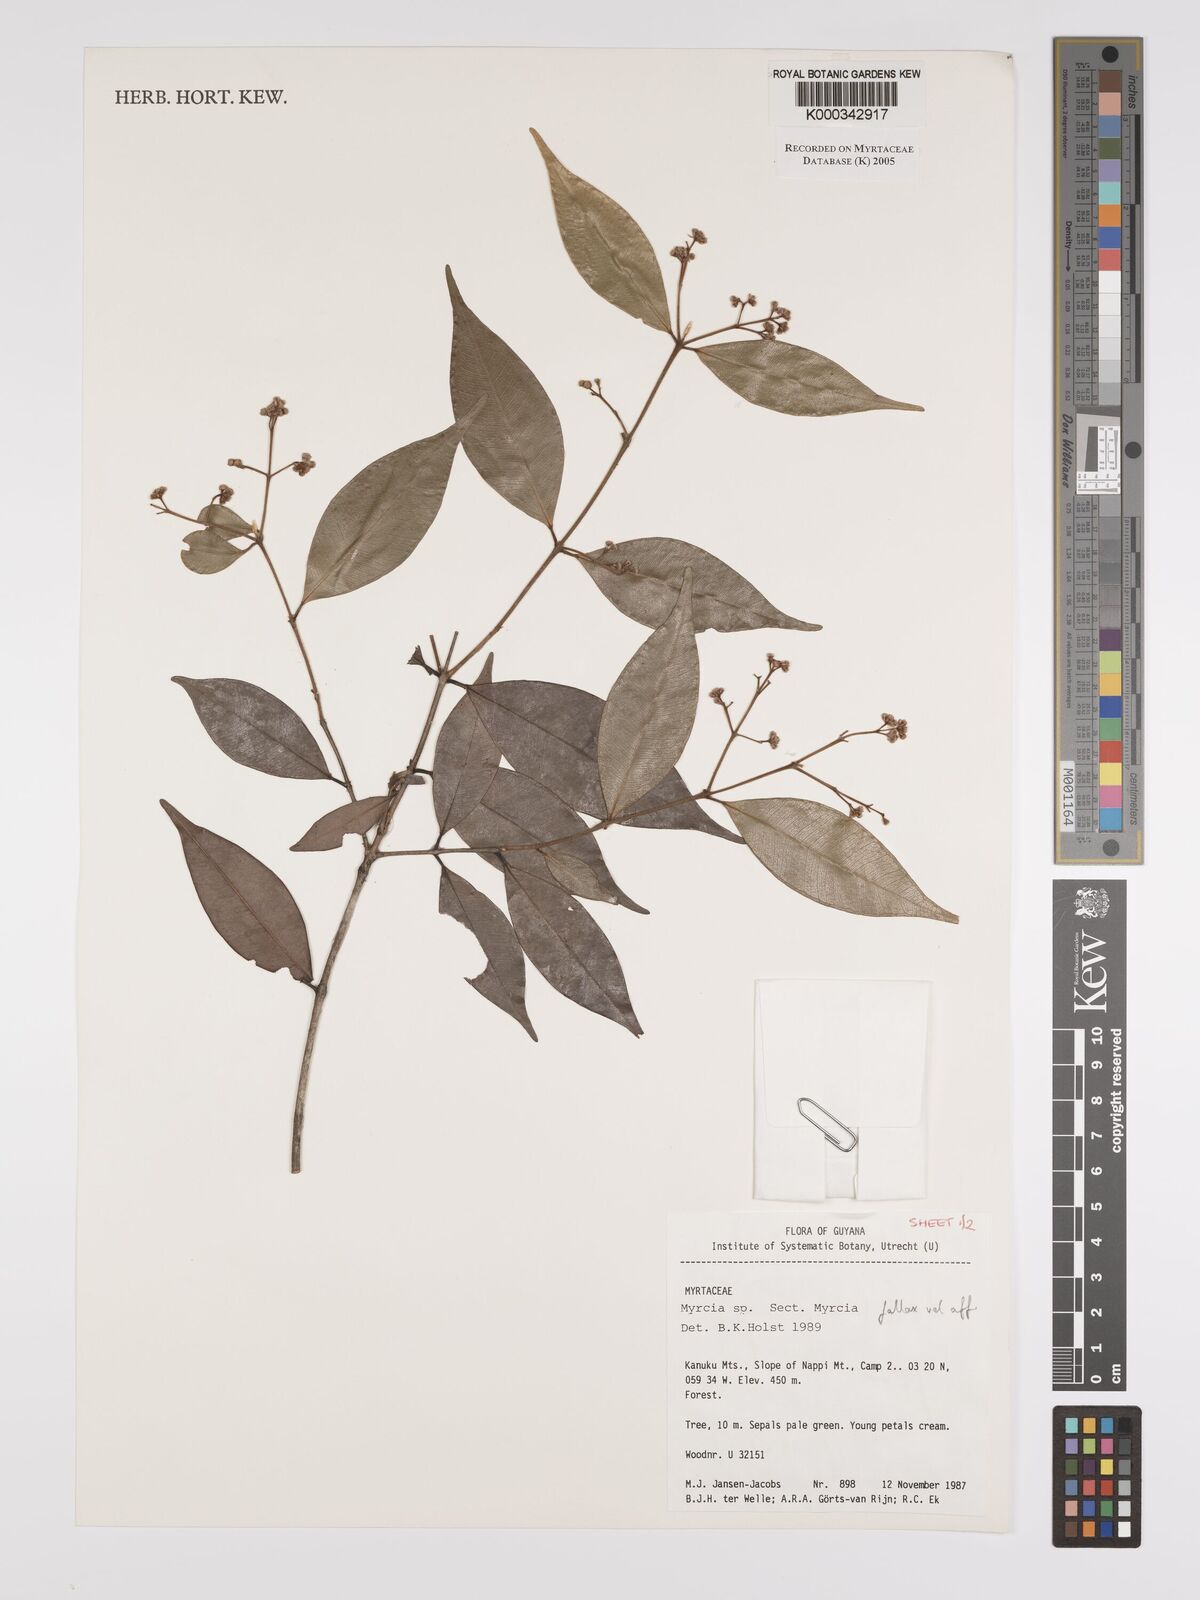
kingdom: Plantae
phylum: Tracheophyta
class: Magnoliopsida
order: Myrtales
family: Myrtaceae
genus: Myrcia
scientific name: Myrcia splendens
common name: Surinam cherry
